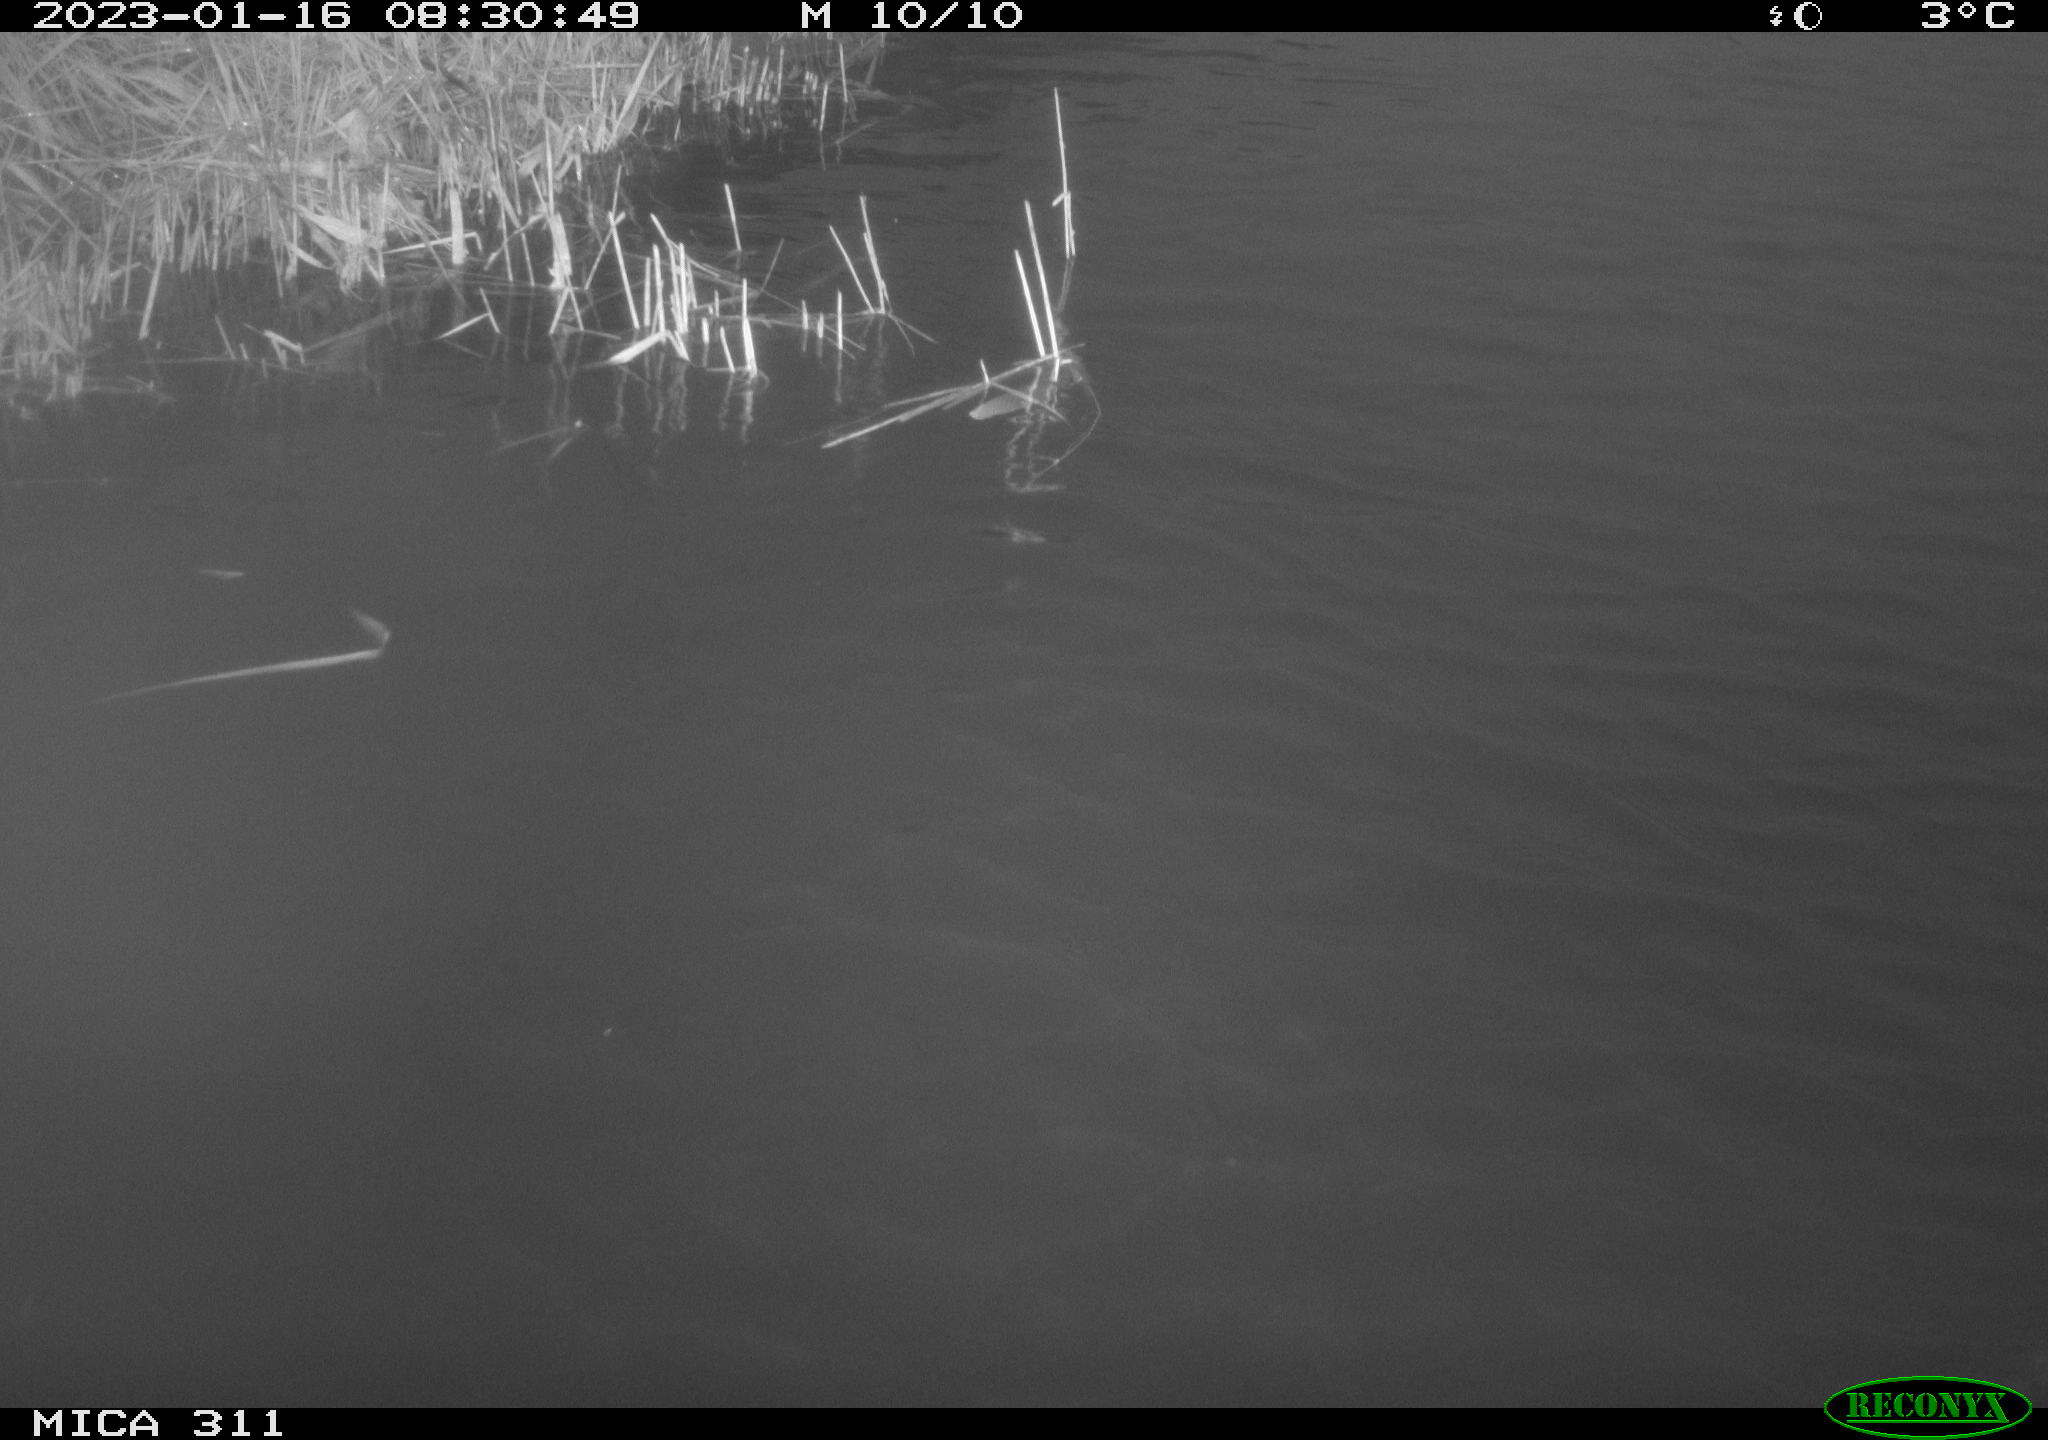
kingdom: Animalia
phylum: Chordata
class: Aves
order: Gruiformes
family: Rallidae
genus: Gallinula
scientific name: Gallinula chloropus
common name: Common moorhen
